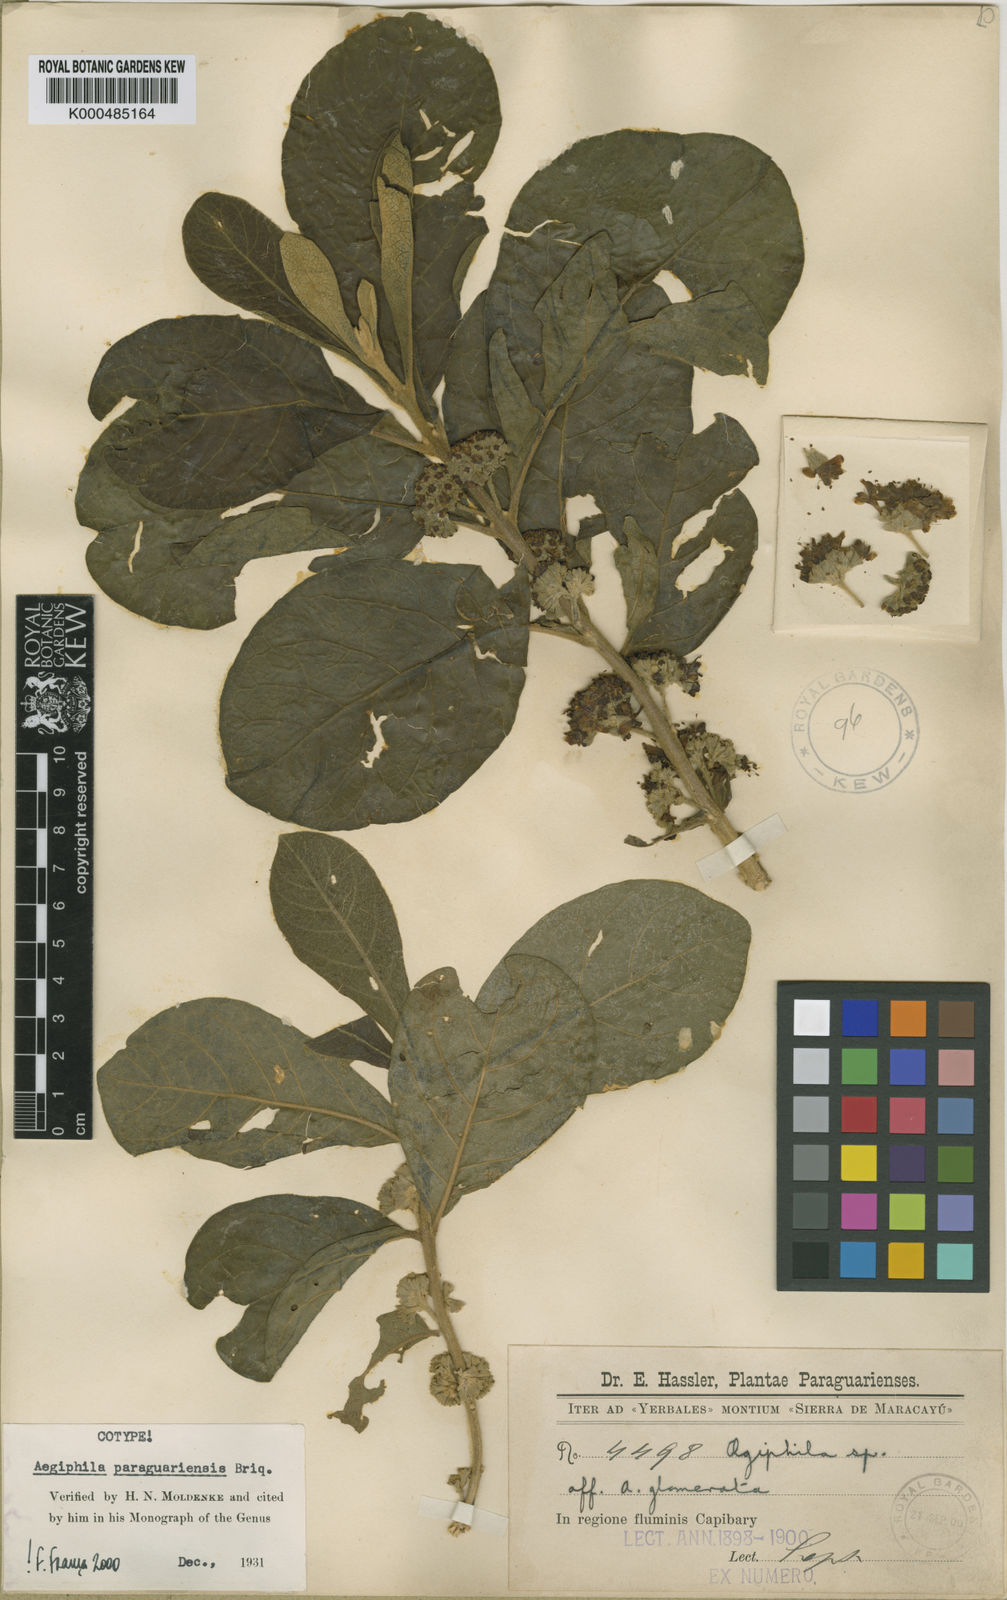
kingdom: Plantae
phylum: Tracheophyta
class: Magnoliopsida
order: Lamiales
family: Lamiaceae
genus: Aegiphila
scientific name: Aegiphila paraguariensis
